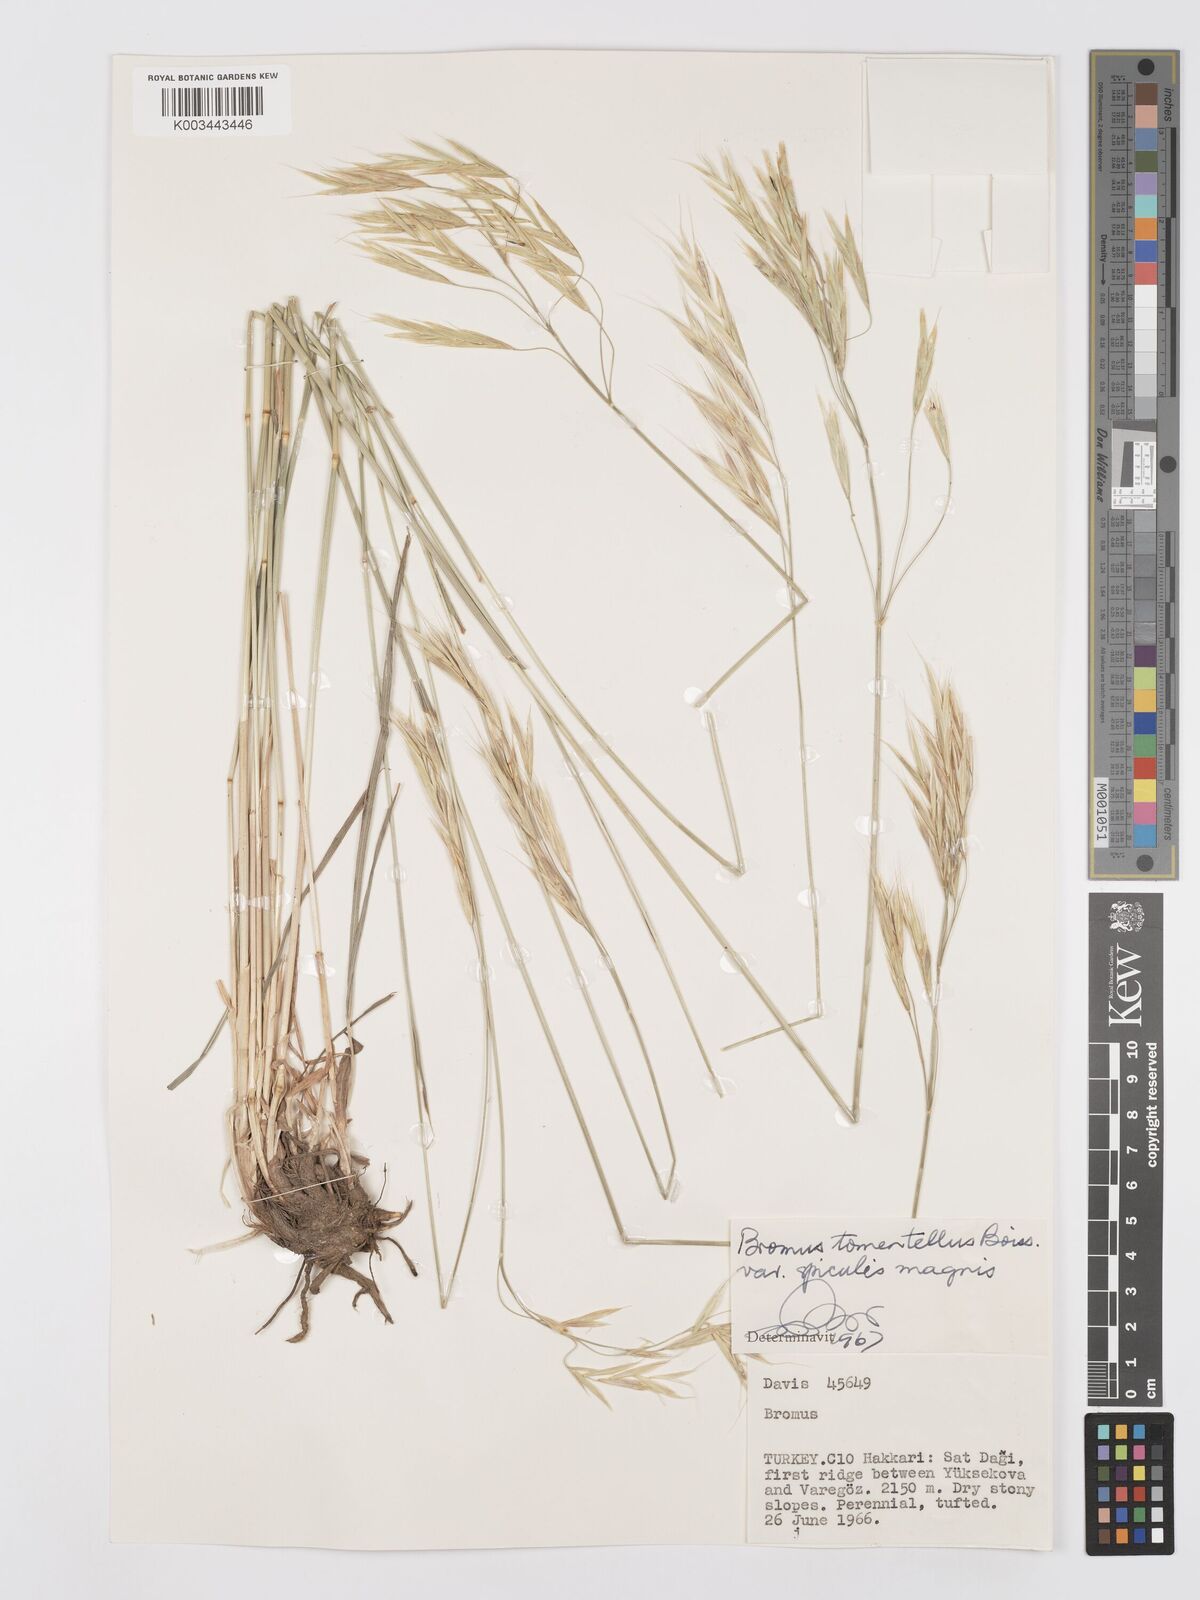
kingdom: Plantae
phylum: Tracheophyta
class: Liliopsida
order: Poales
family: Poaceae
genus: Bromus
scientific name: Bromus tomentellus
